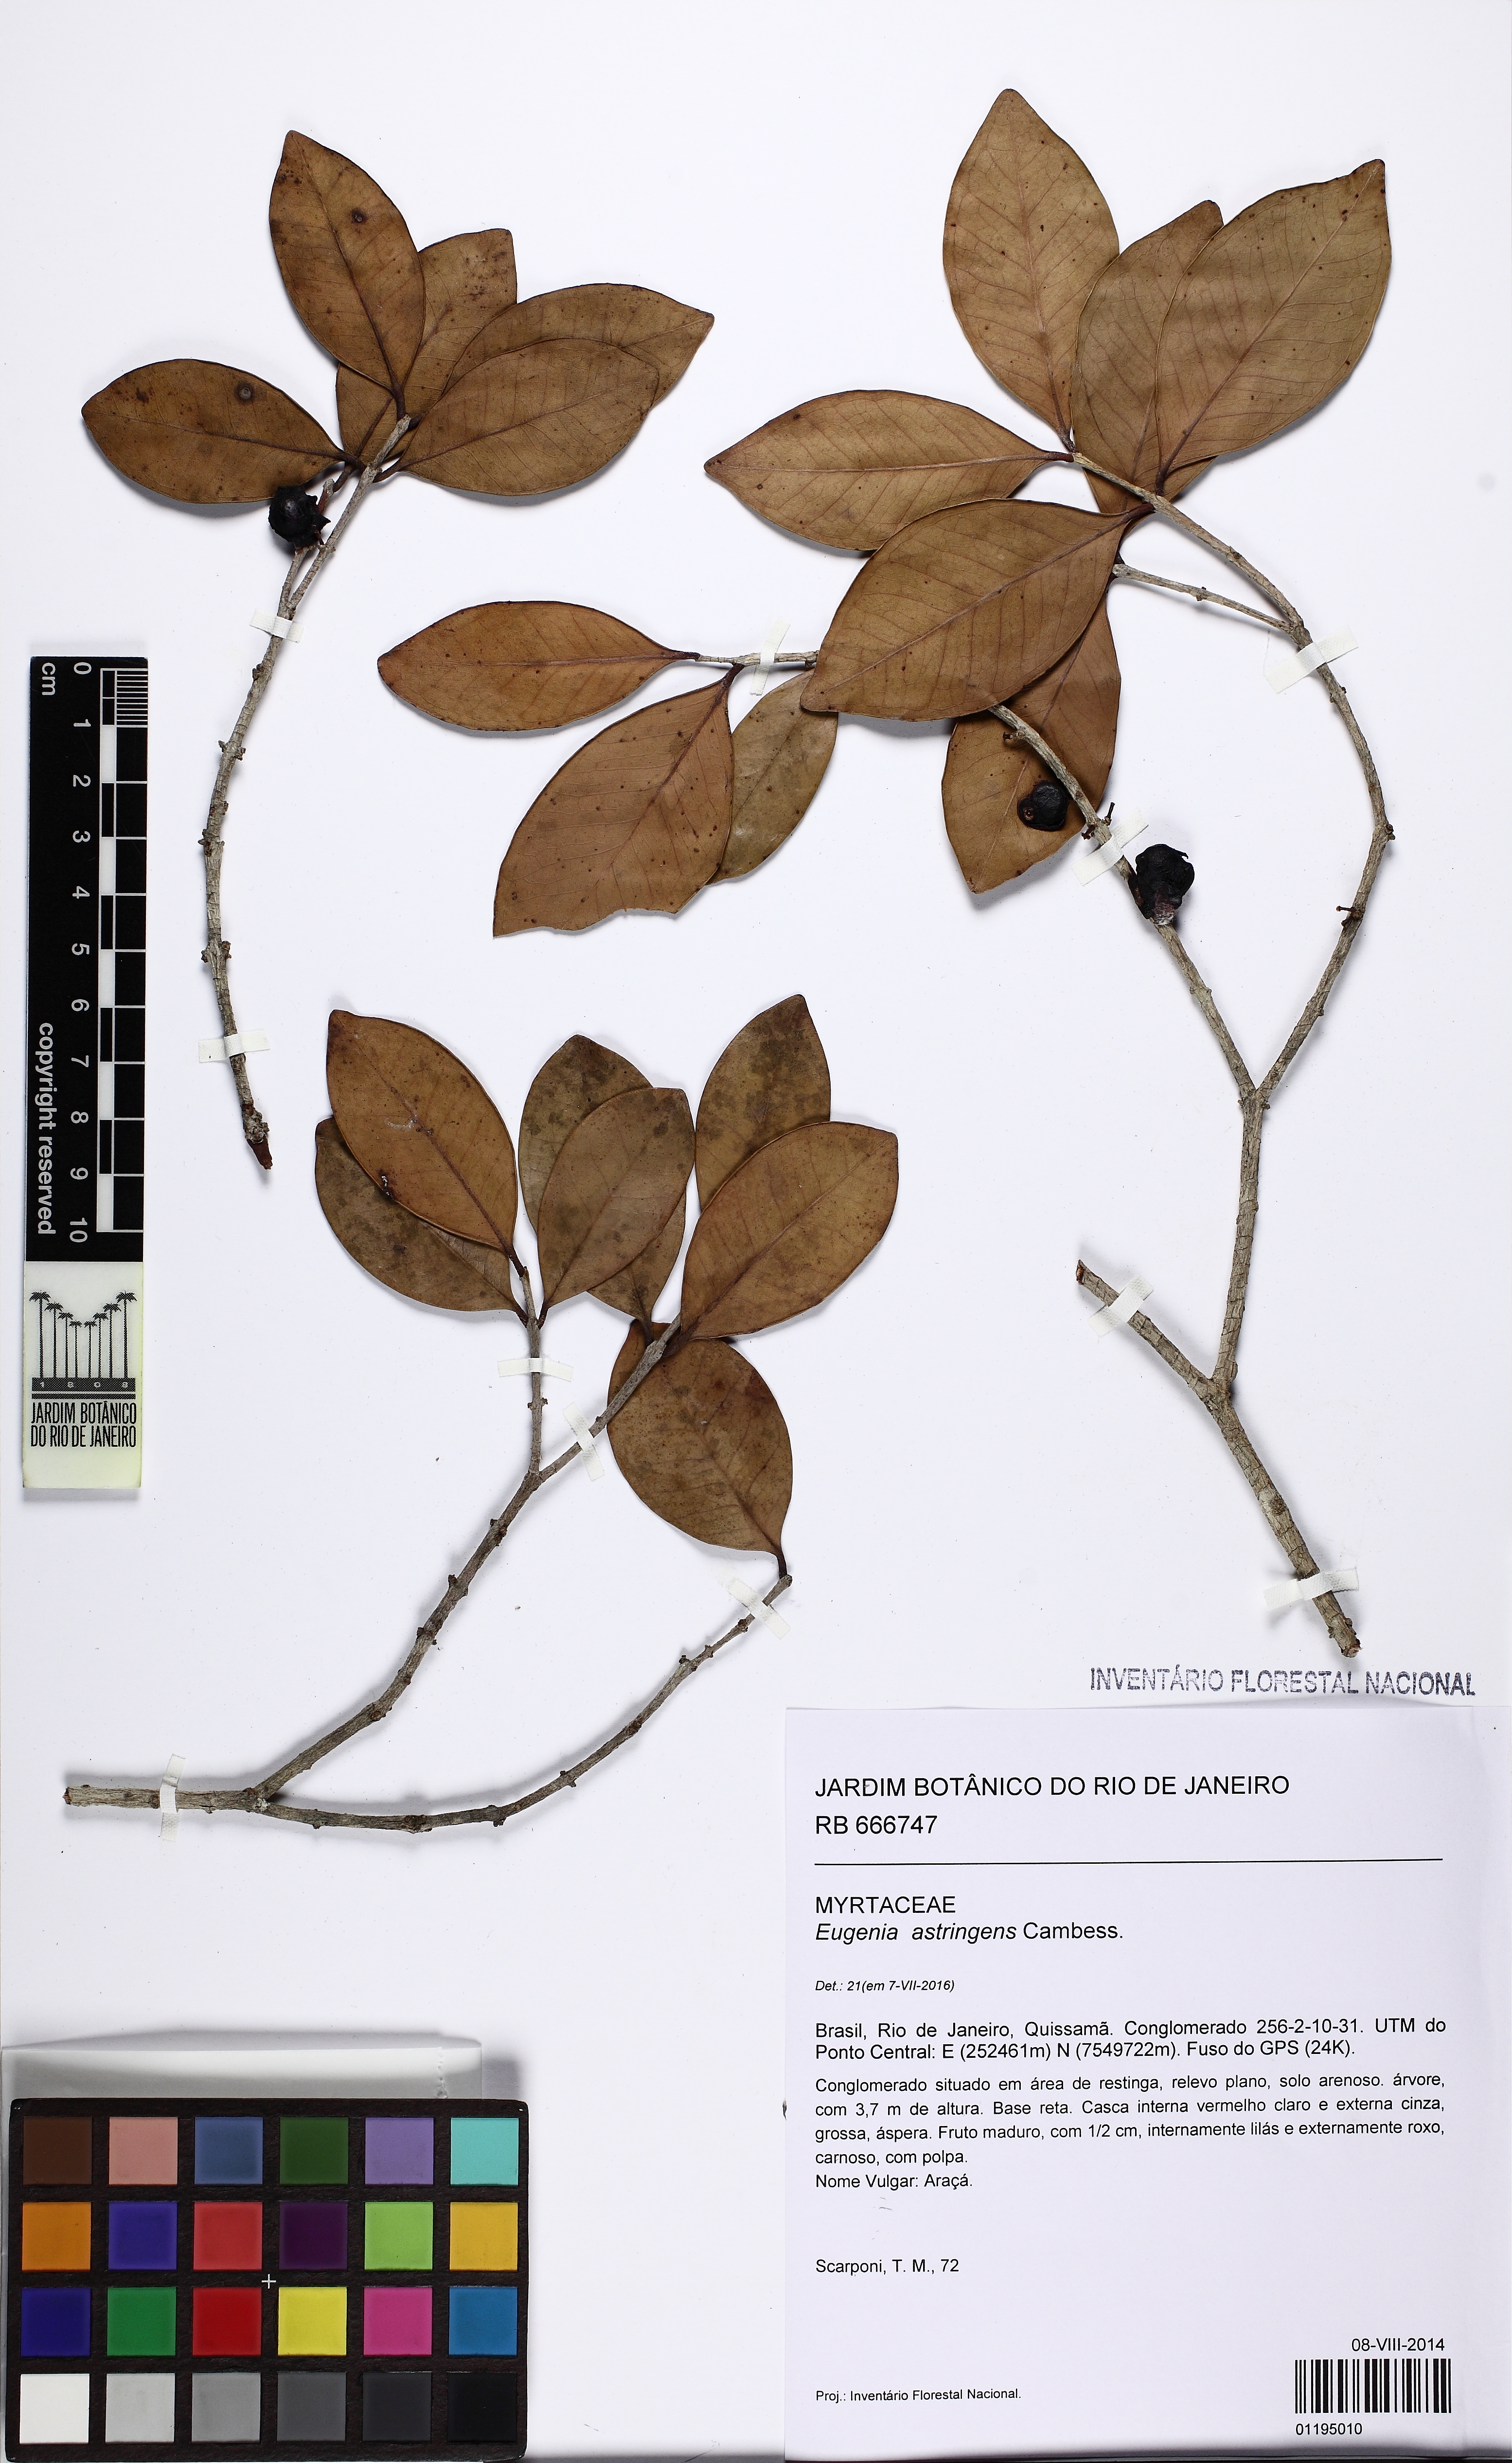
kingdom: Plantae
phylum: Tracheophyta
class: Magnoliopsida
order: Myrtales
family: Myrtaceae
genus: Eugenia
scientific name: Eugenia astringens
